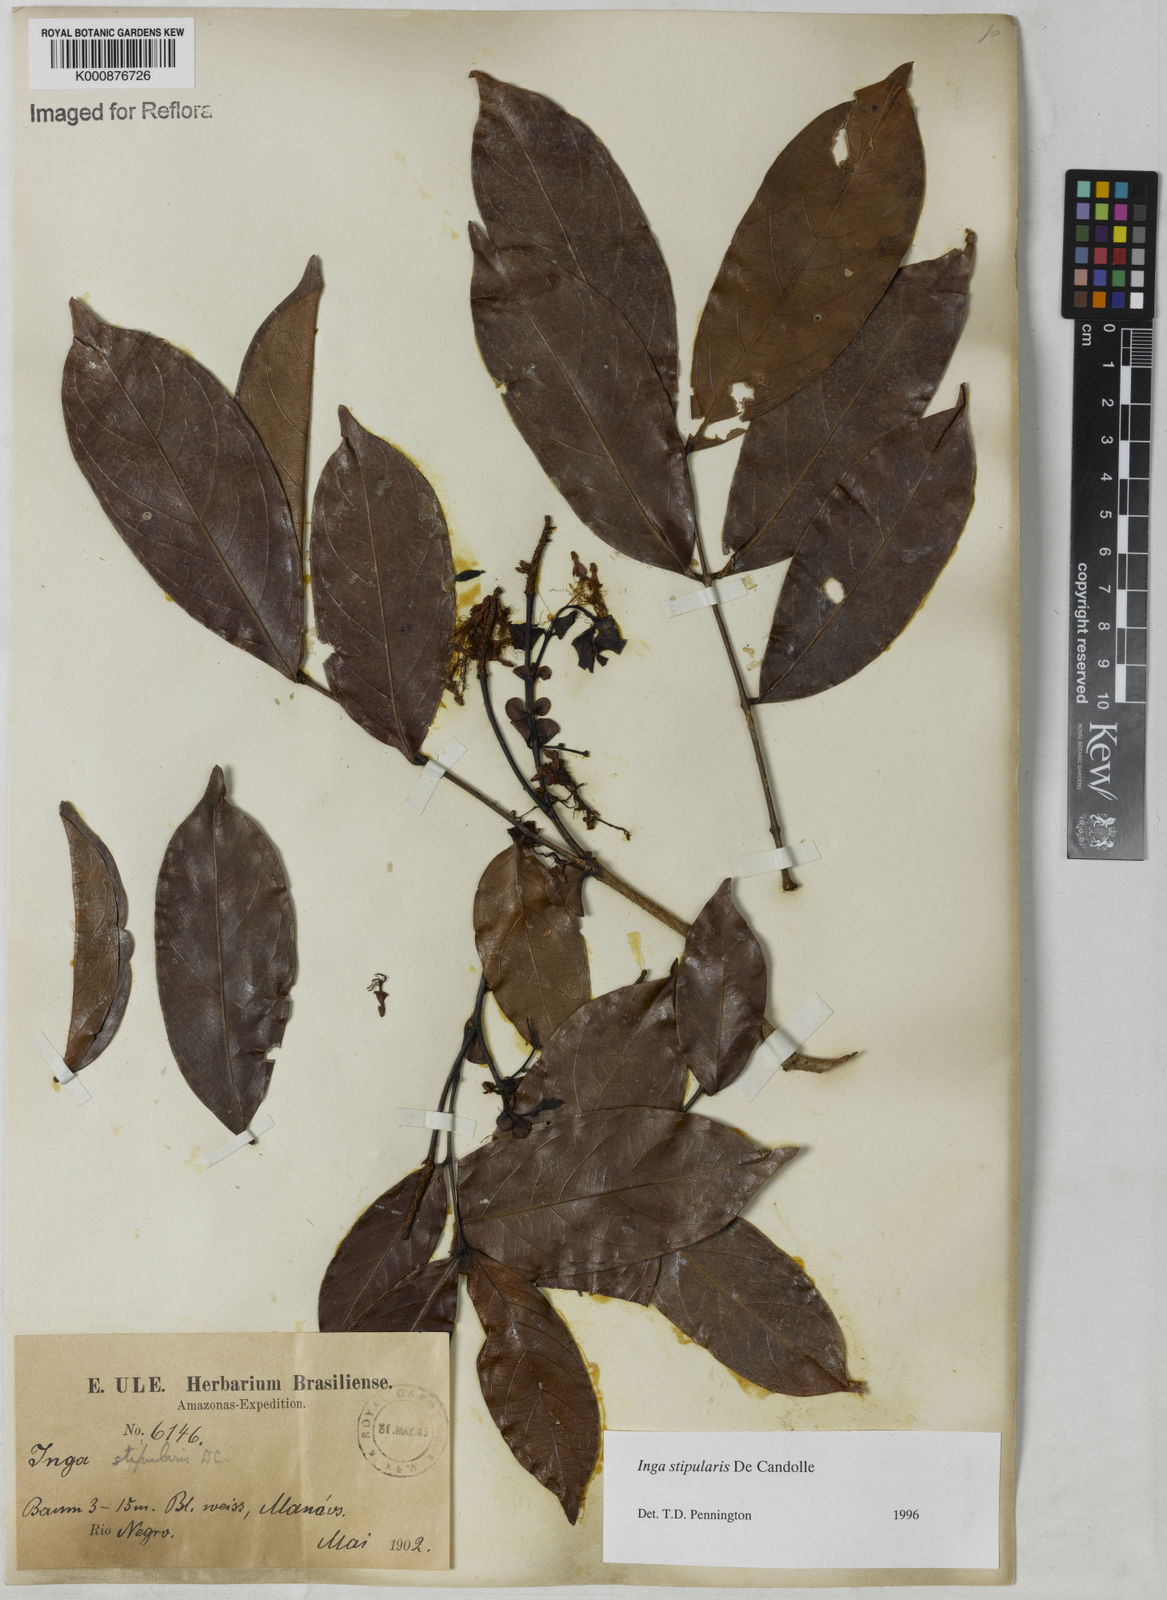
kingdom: Plantae
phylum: Tracheophyta
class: Magnoliopsida
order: Fabales
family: Fabaceae
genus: Inga
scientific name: Inga stipularis
